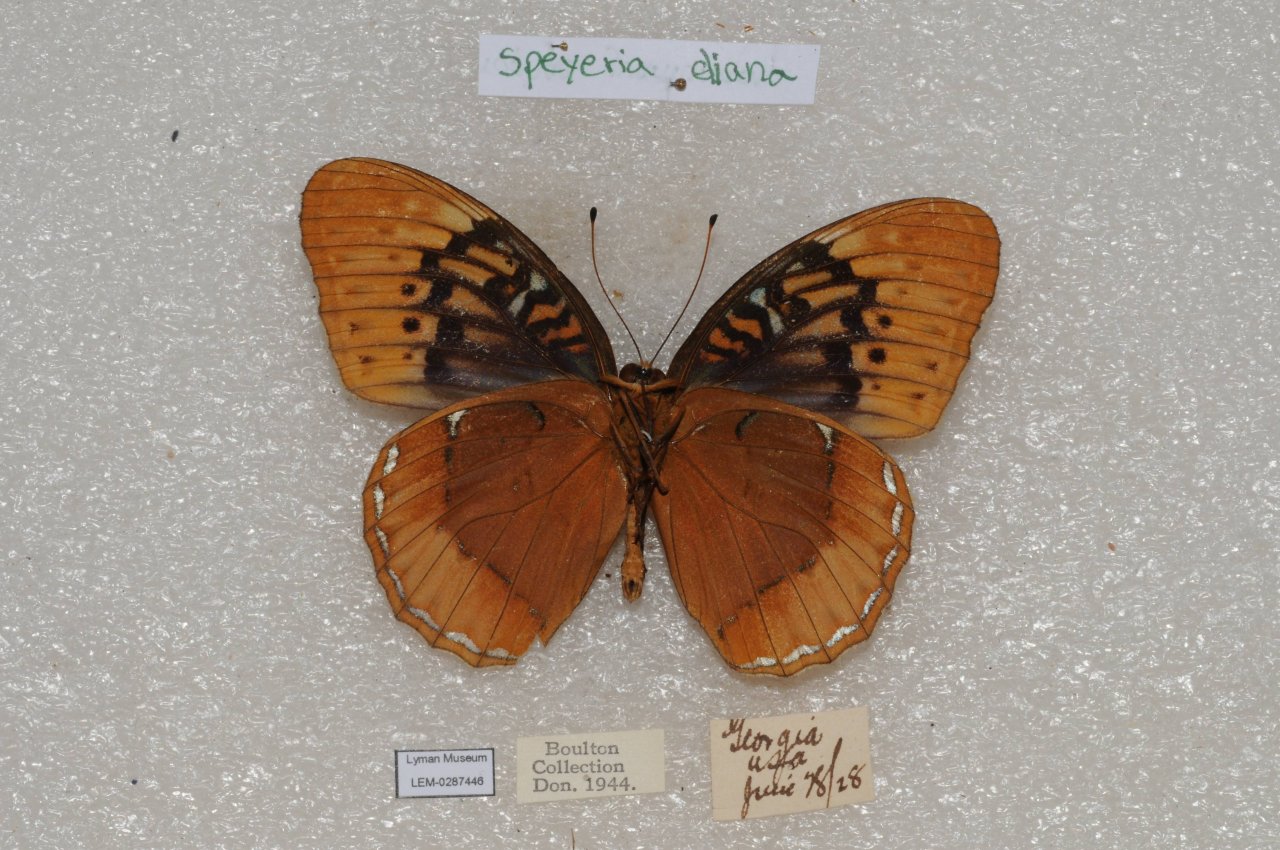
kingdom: Animalia
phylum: Arthropoda
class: Insecta
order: Lepidoptera
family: Nymphalidae
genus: Speyeria
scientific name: Speyeria diana
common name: Diana Fritillary
